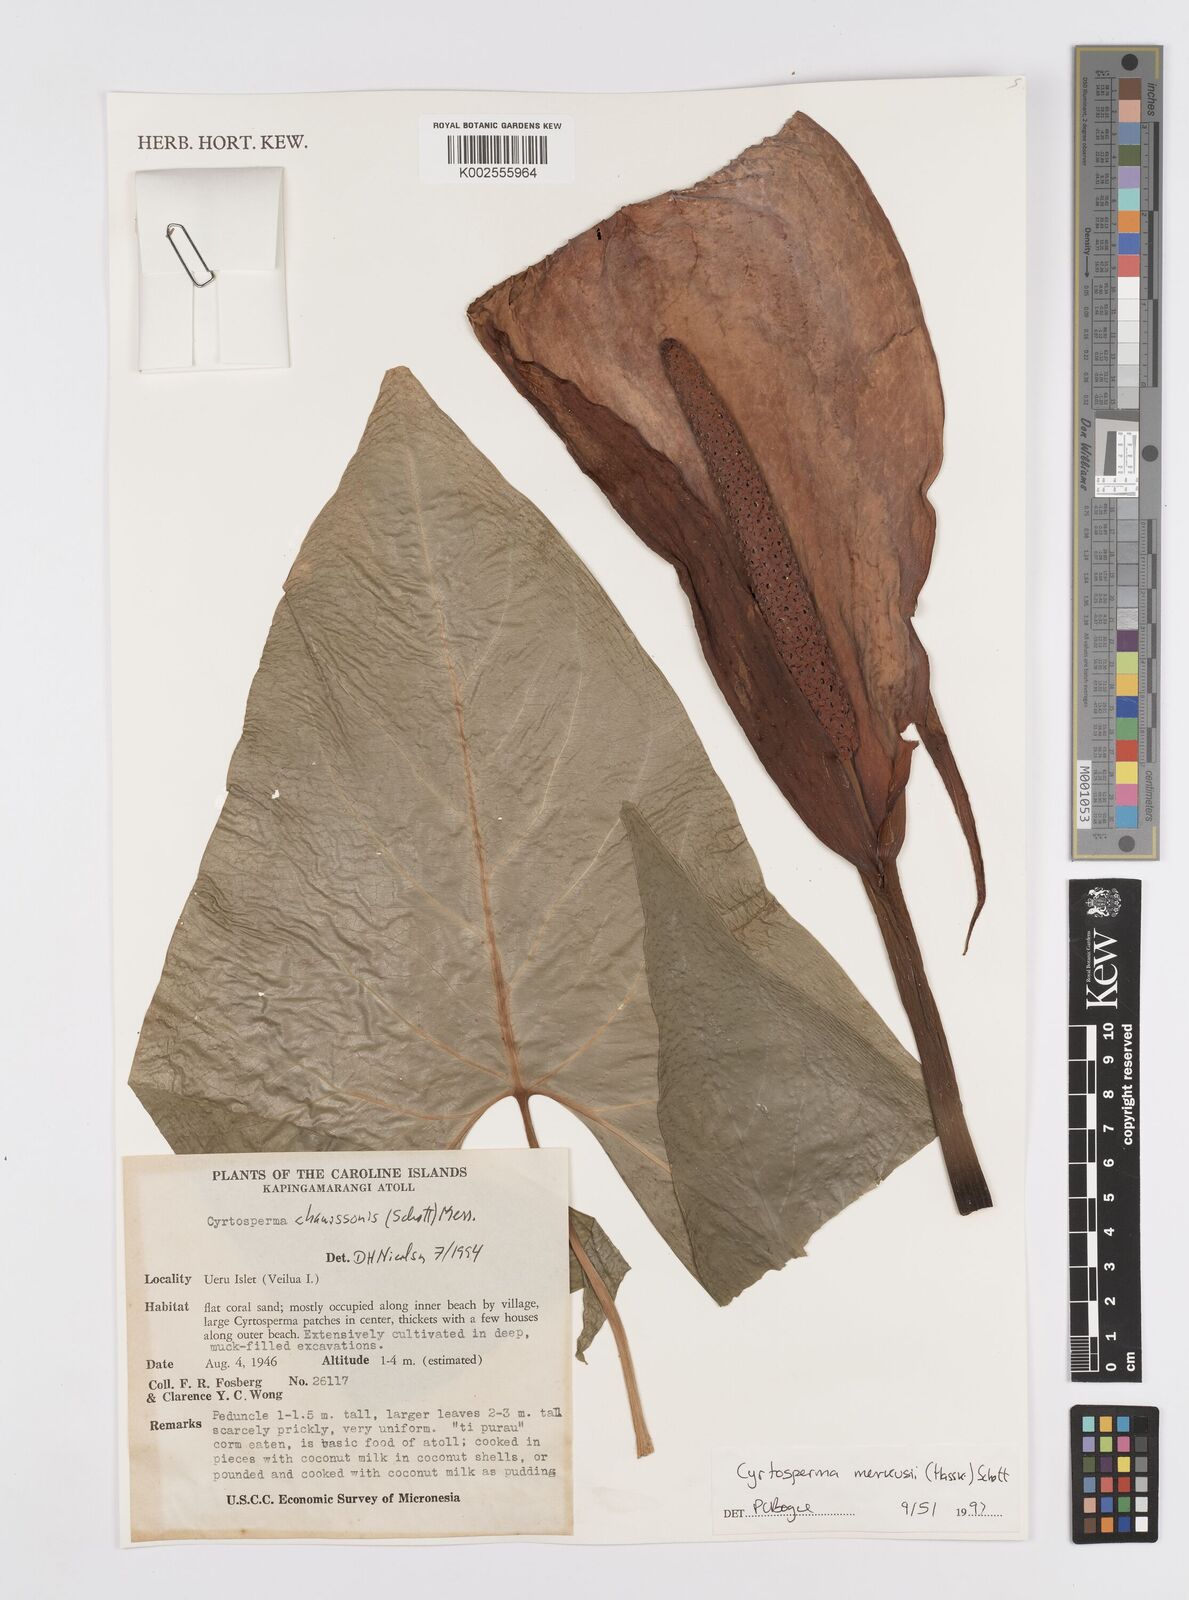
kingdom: Plantae
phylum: Tracheophyta
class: Liliopsida
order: Alismatales
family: Araceae
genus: Cyrtosperma
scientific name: Cyrtosperma merkusii
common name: Giant swamp-taro
